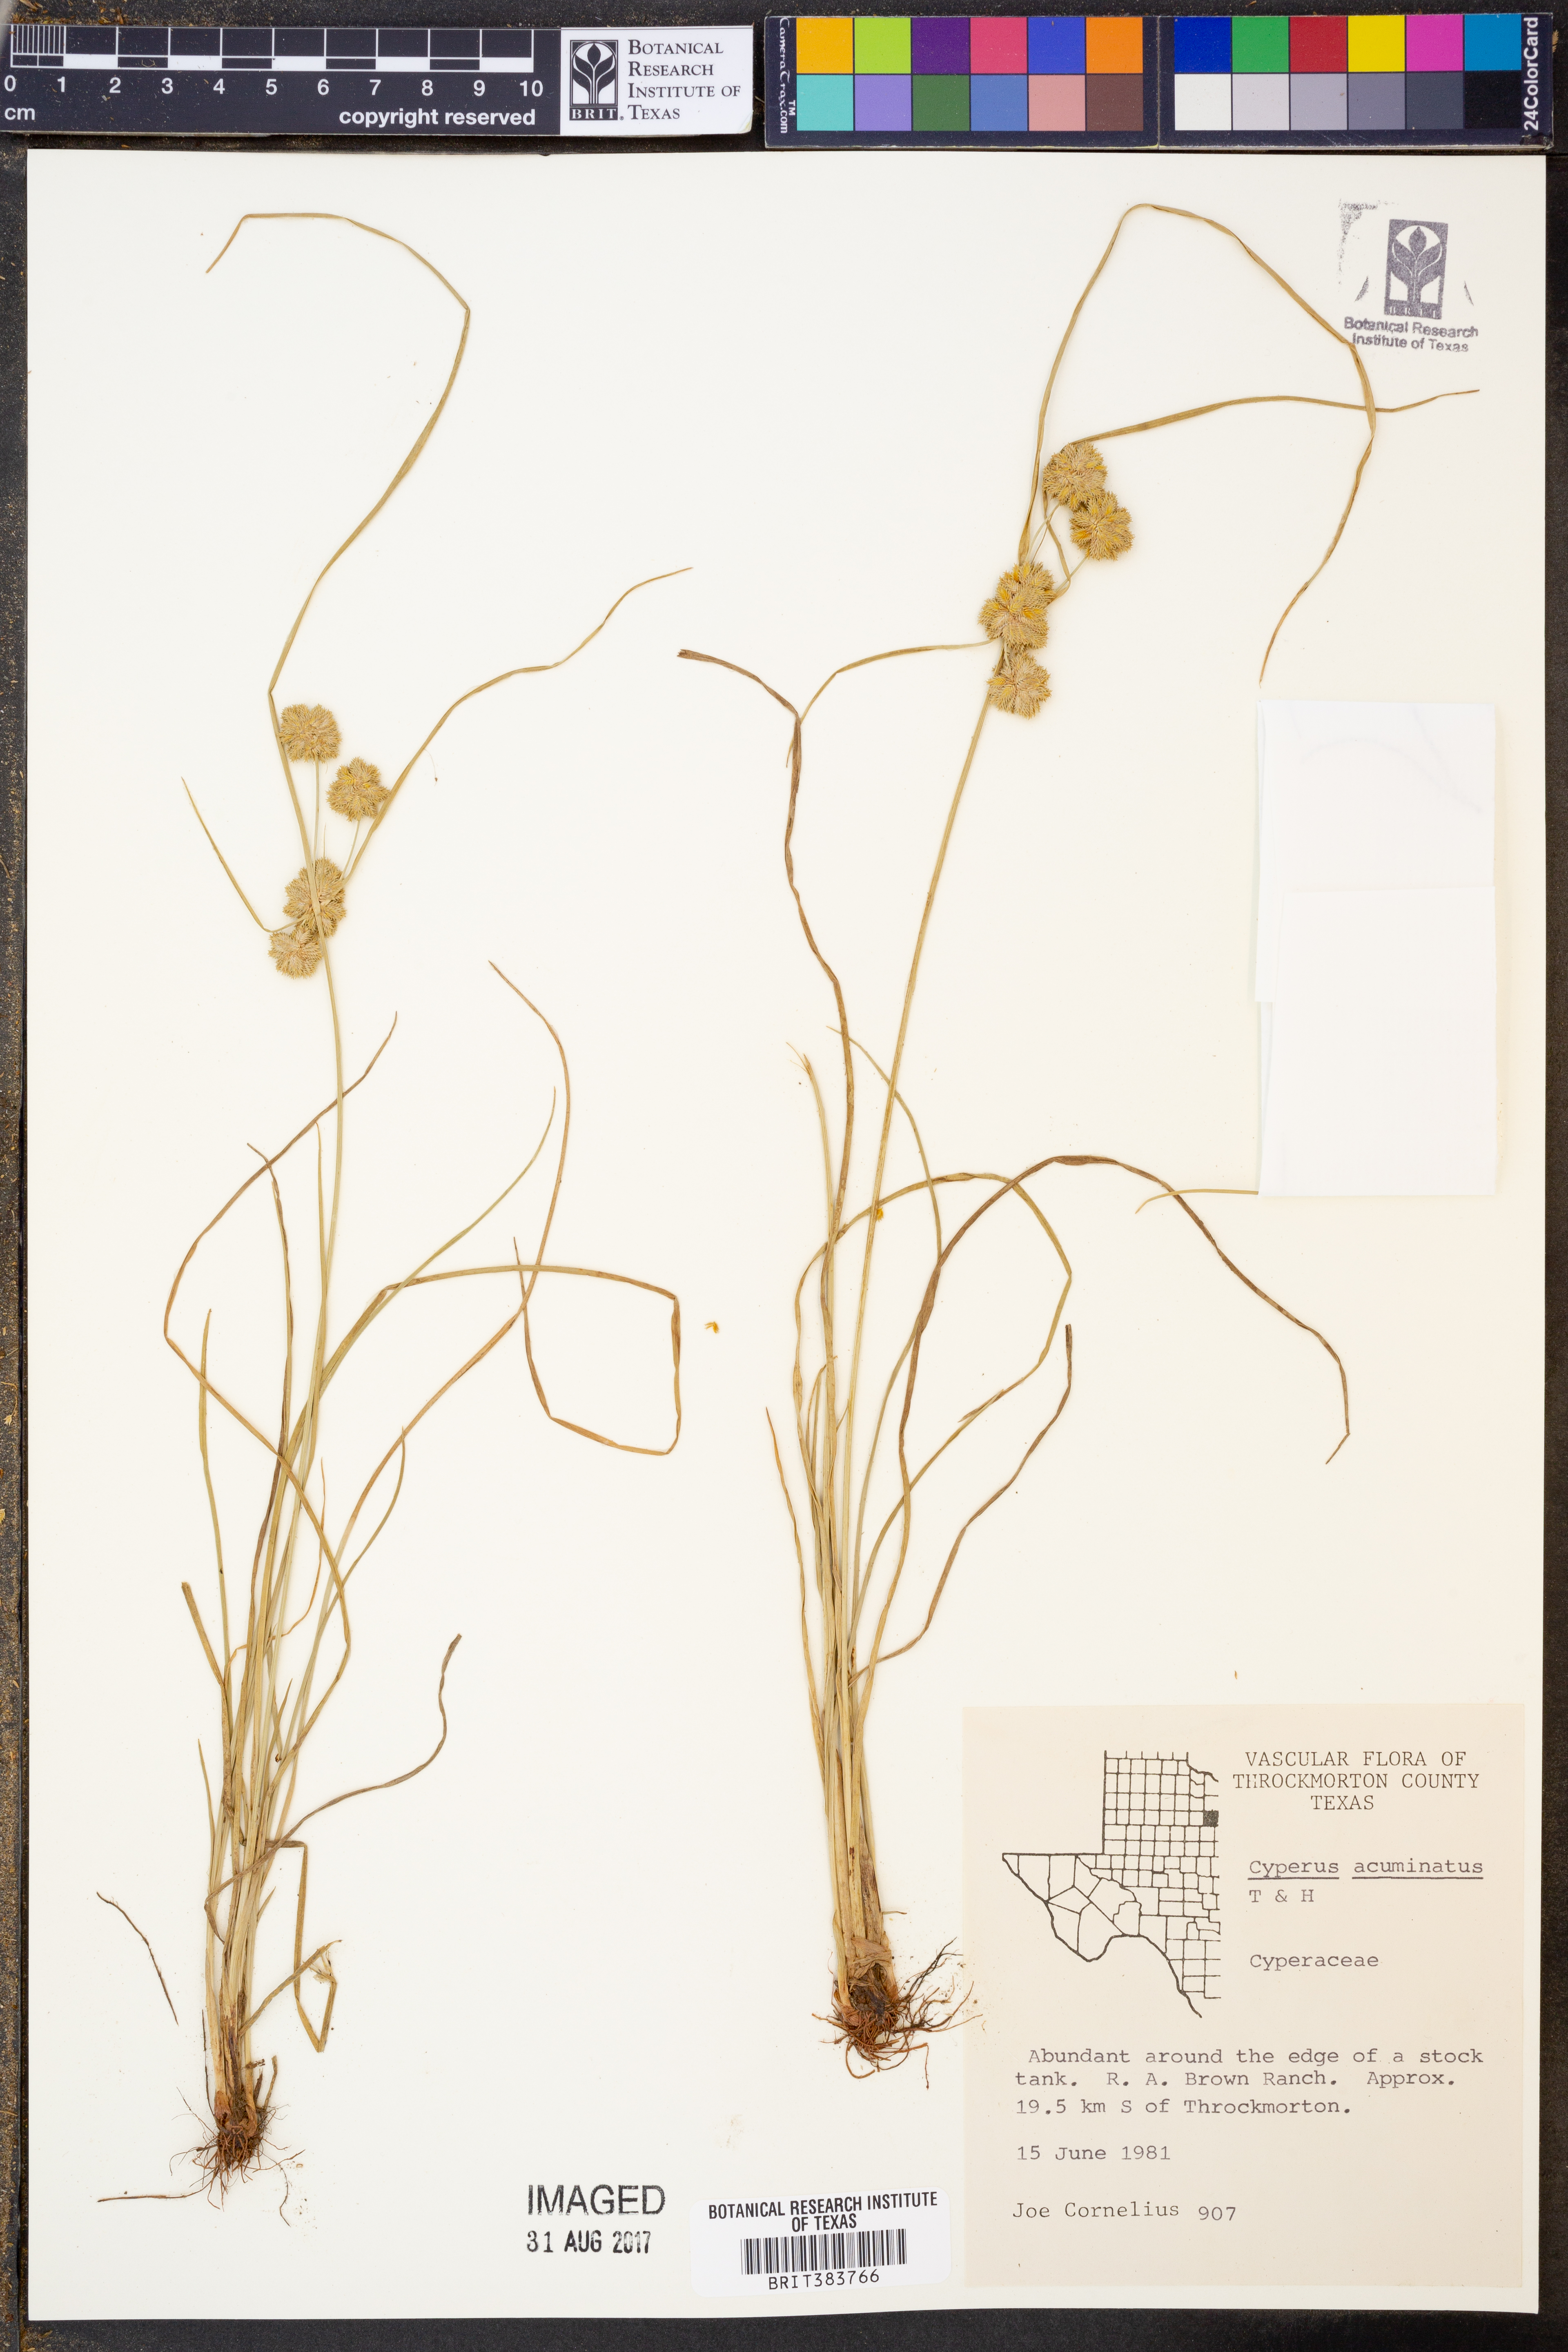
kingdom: Plantae
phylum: Tracheophyta
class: Liliopsida
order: Poales
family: Cyperaceae
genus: Cyperus
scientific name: Cyperus acuminatus
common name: Short-pointed cyperus
